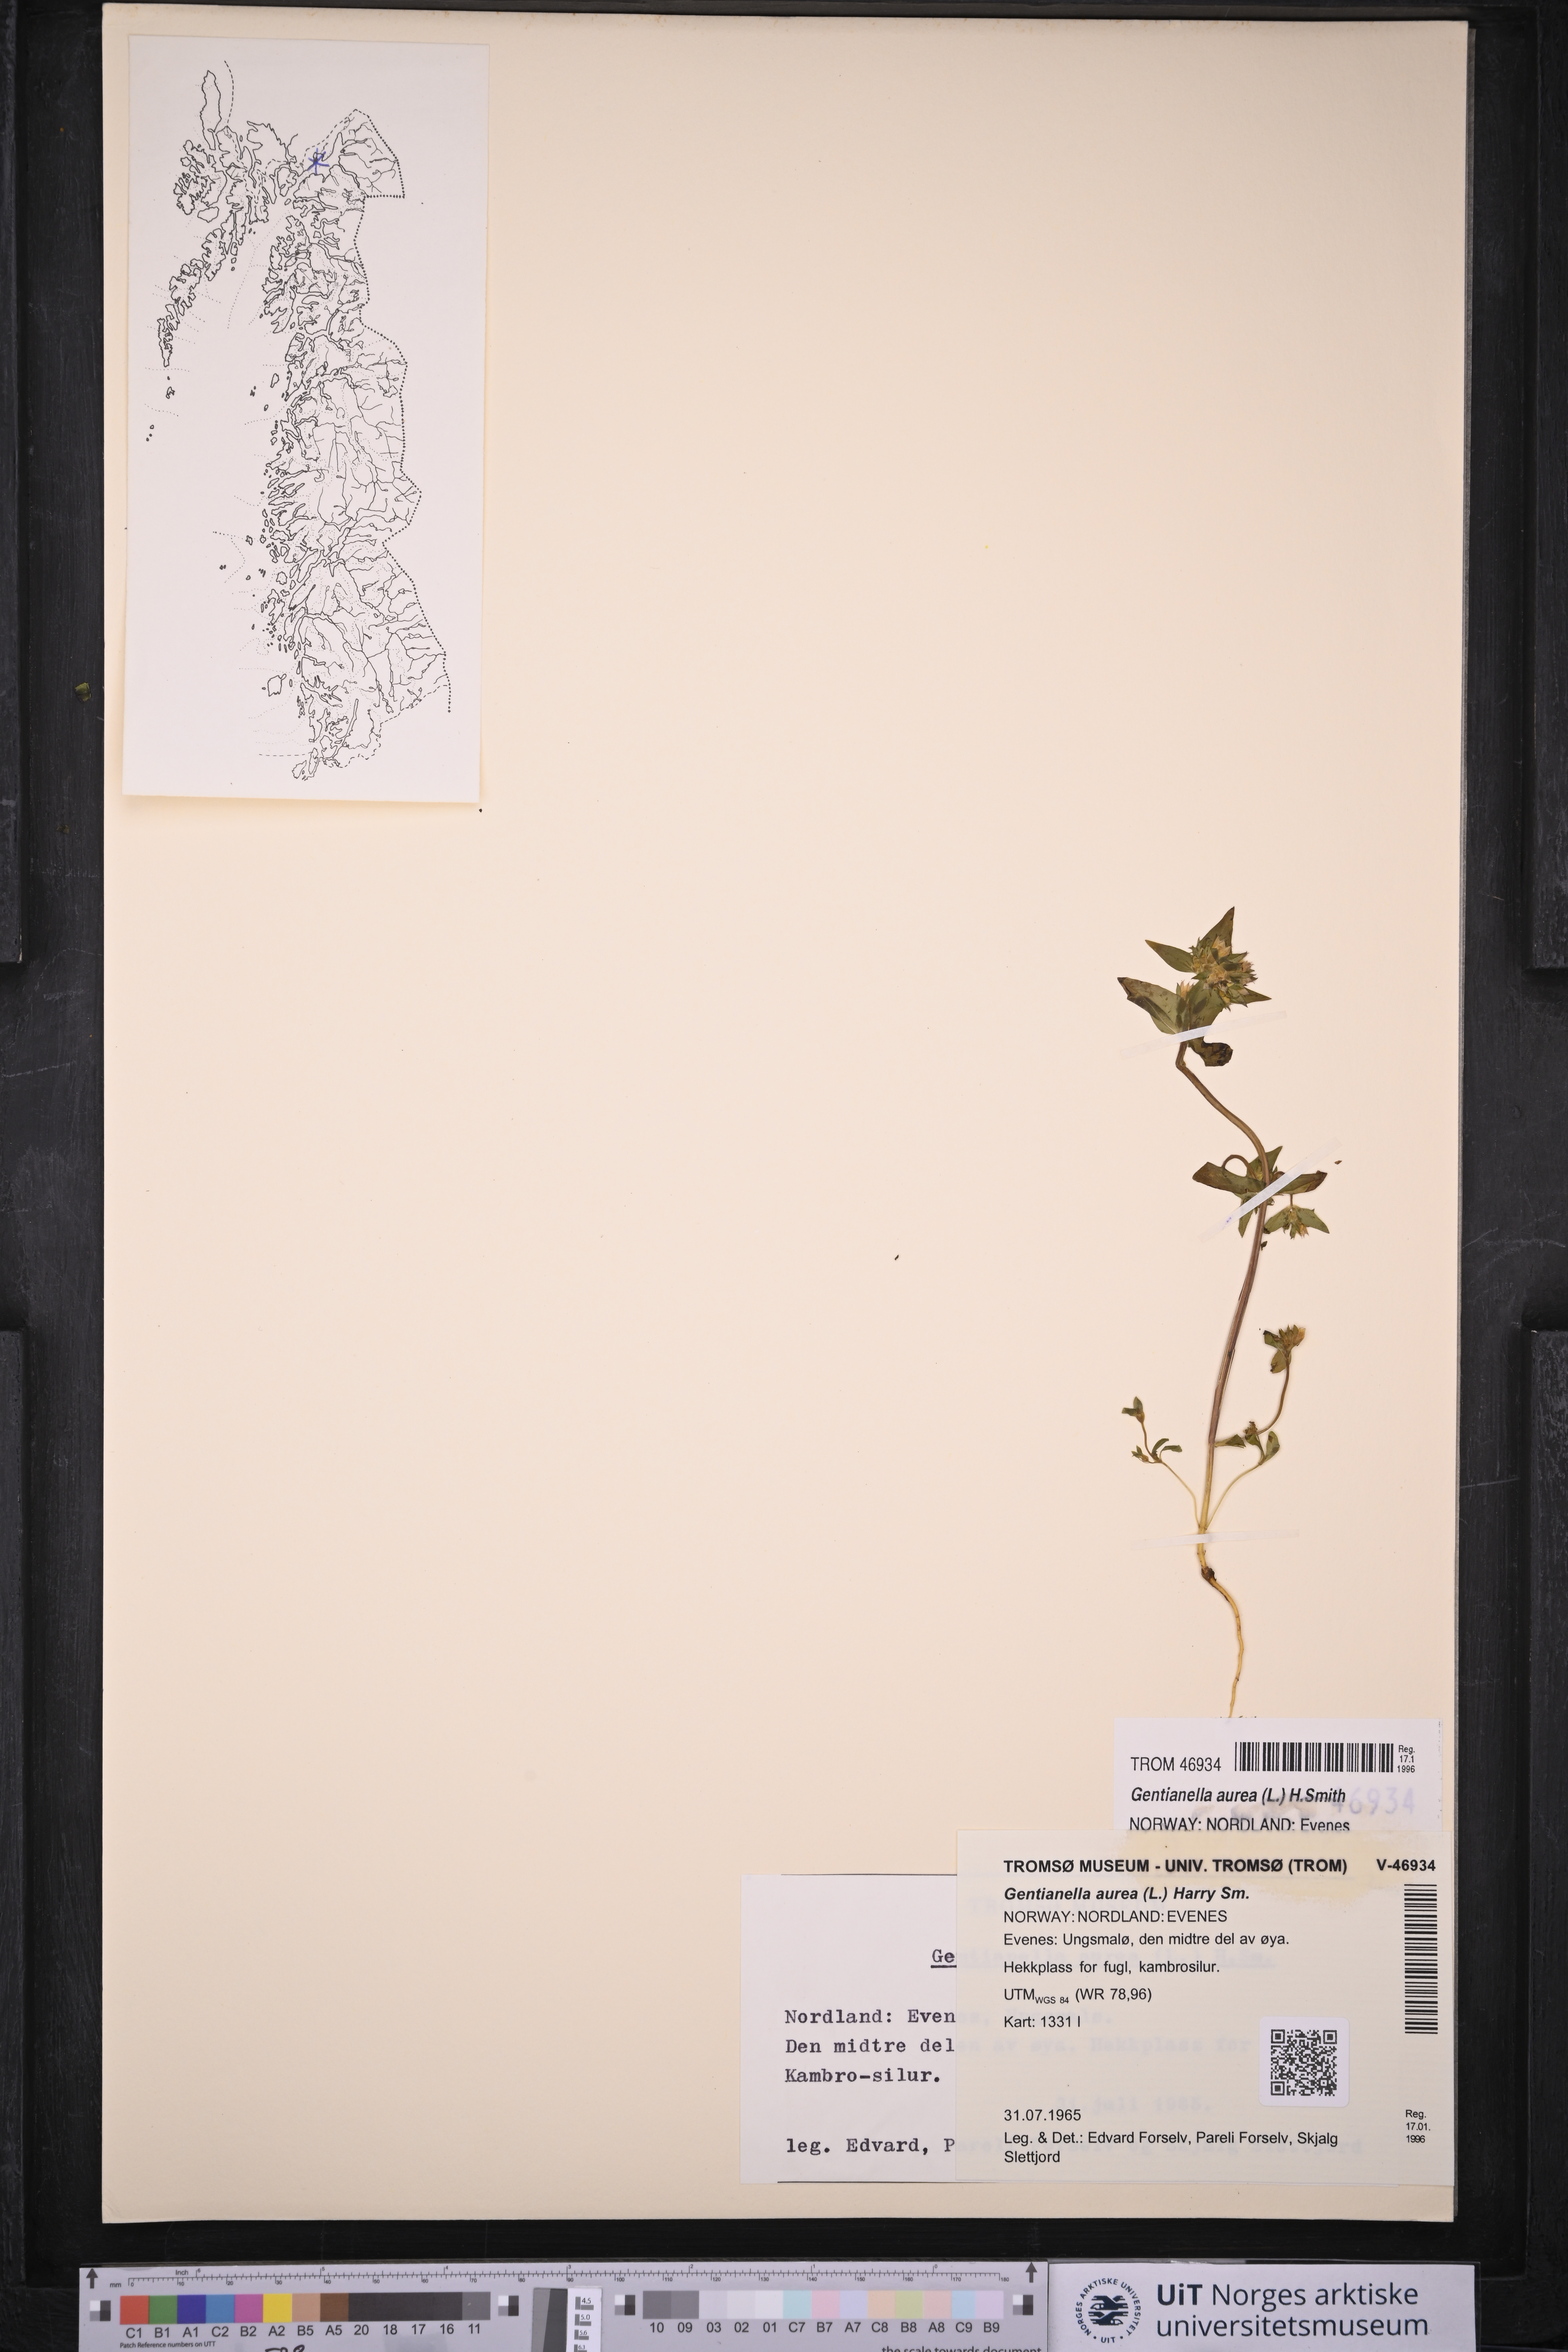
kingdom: Plantae
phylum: Tracheophyta
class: Magnoliopsida
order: Gentianales
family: Gentianaceae
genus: Gentianella
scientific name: Gentianella aurea
